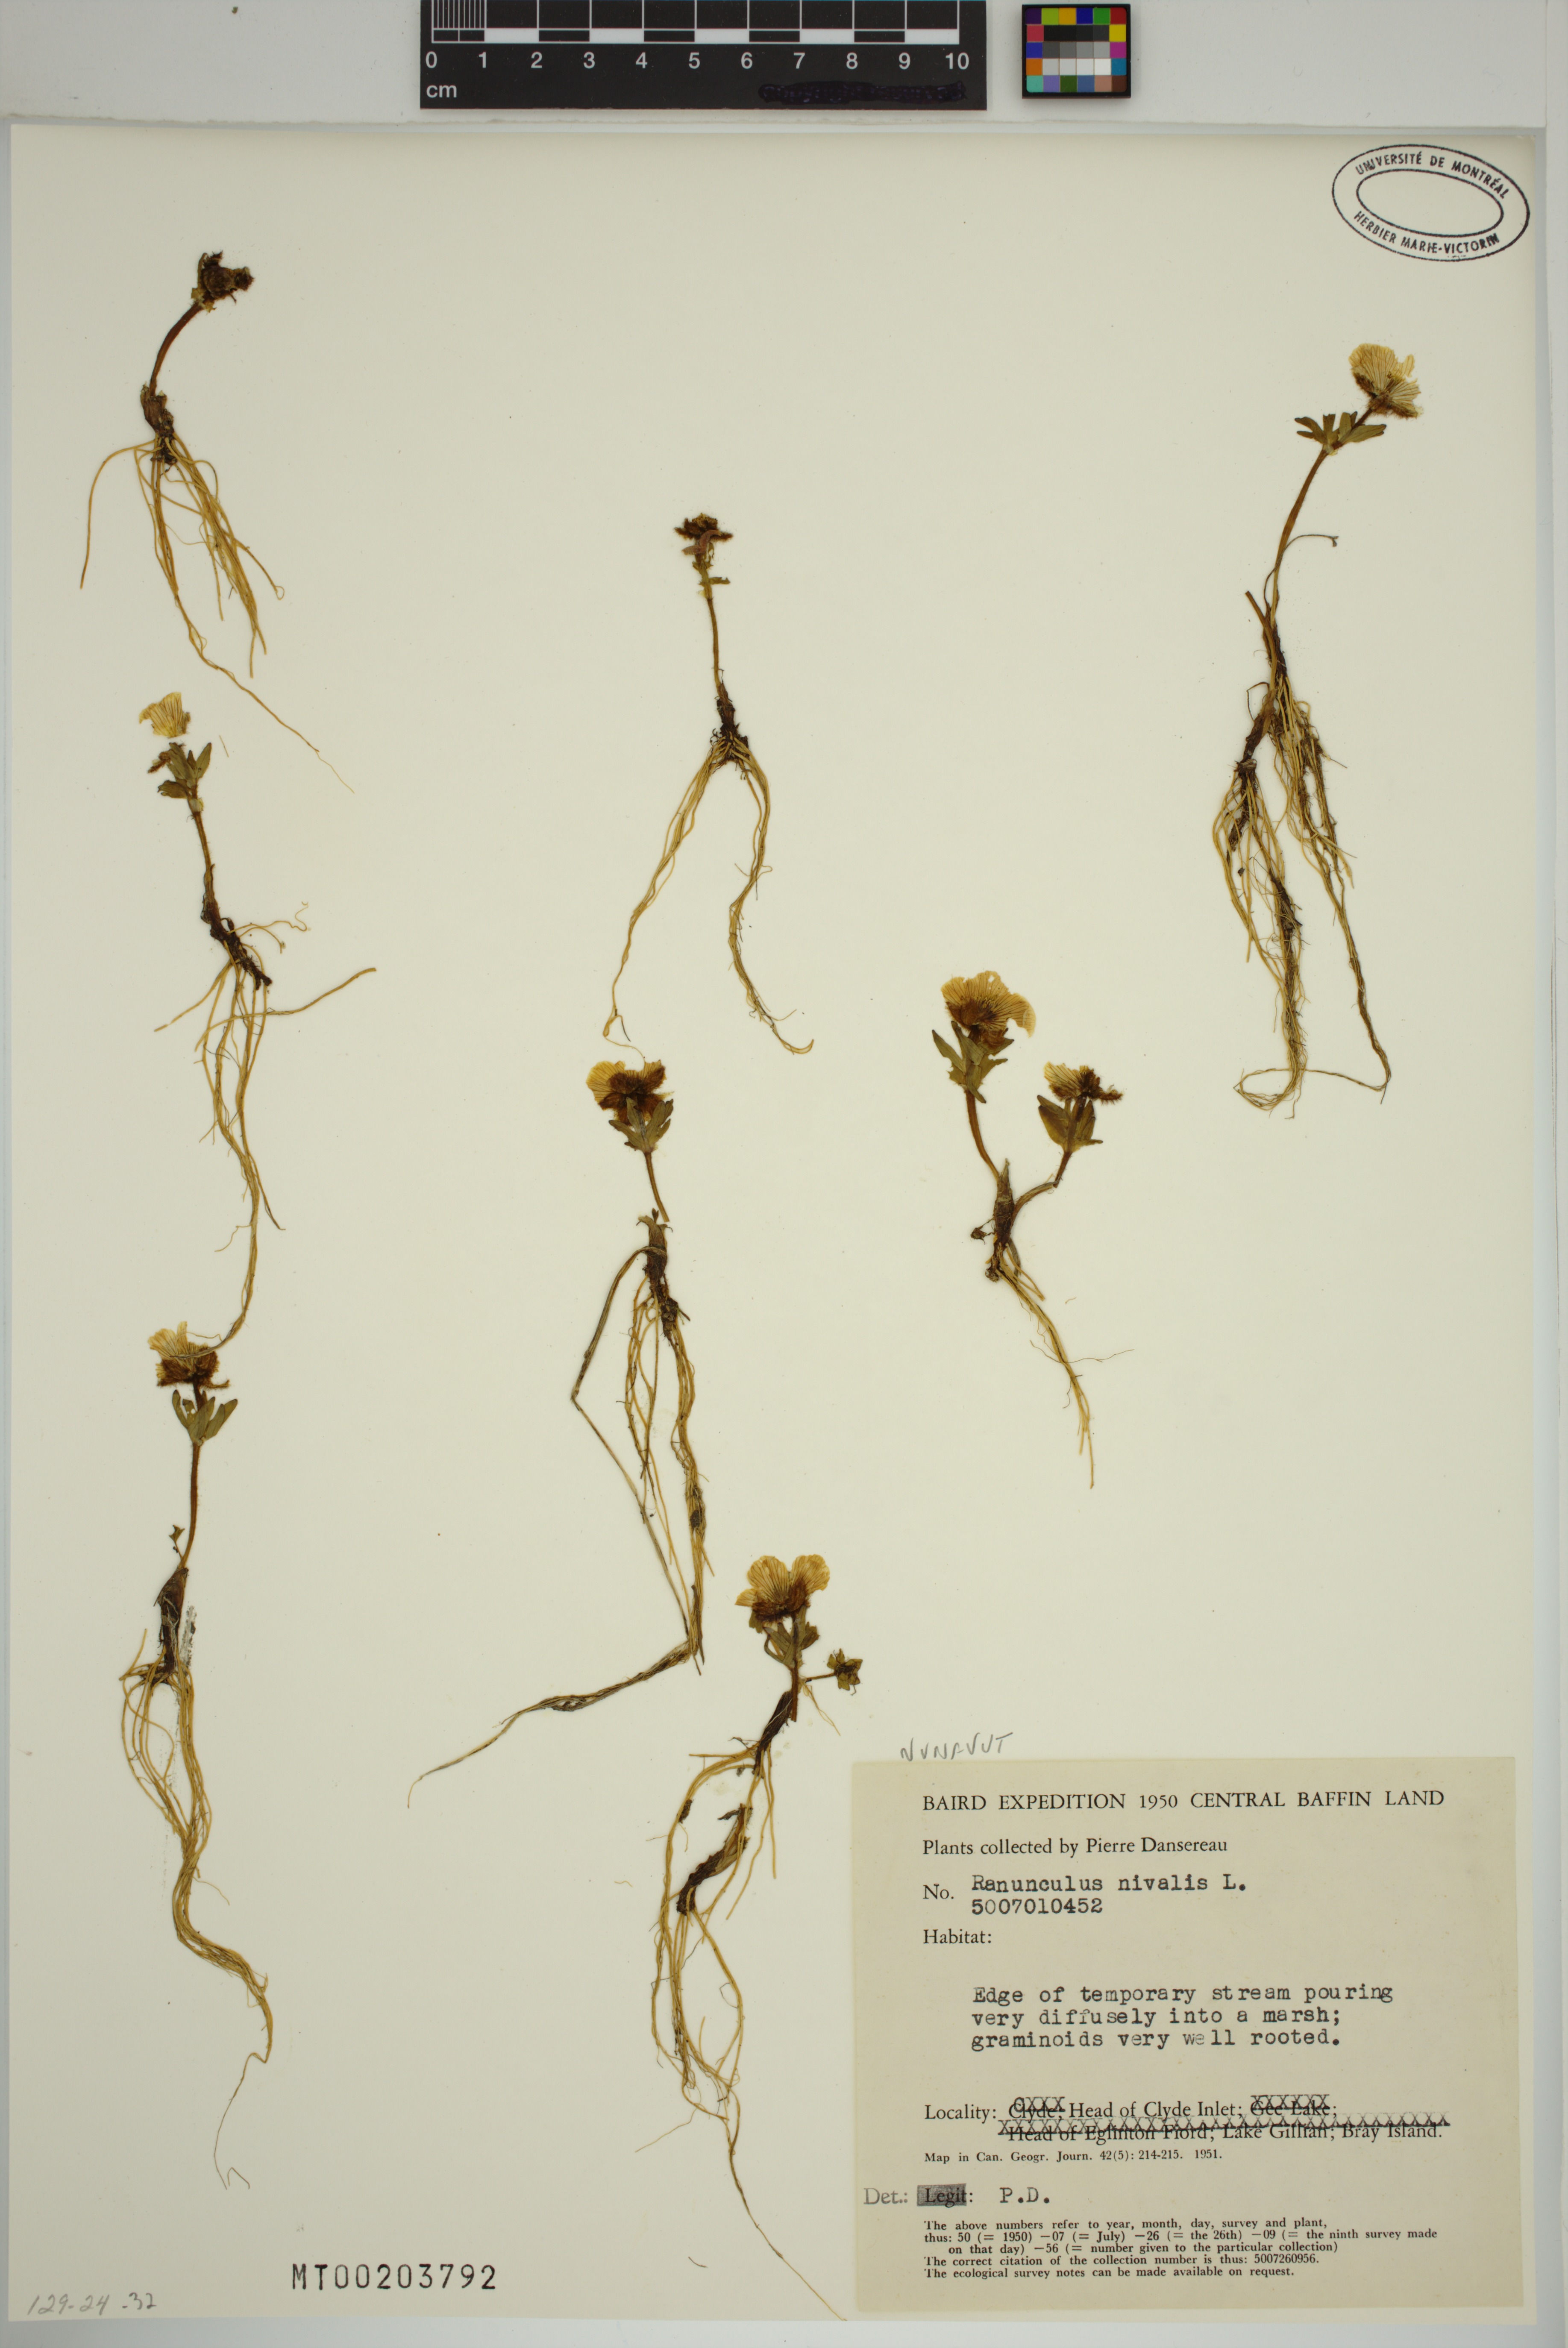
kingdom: Plantae
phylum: Tracheophyta
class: Magnoliopsida
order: Ranunculales
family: Ranunculaceae
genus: Ranunculus
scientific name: Ranunculus nivalis
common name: Snow buttercup
